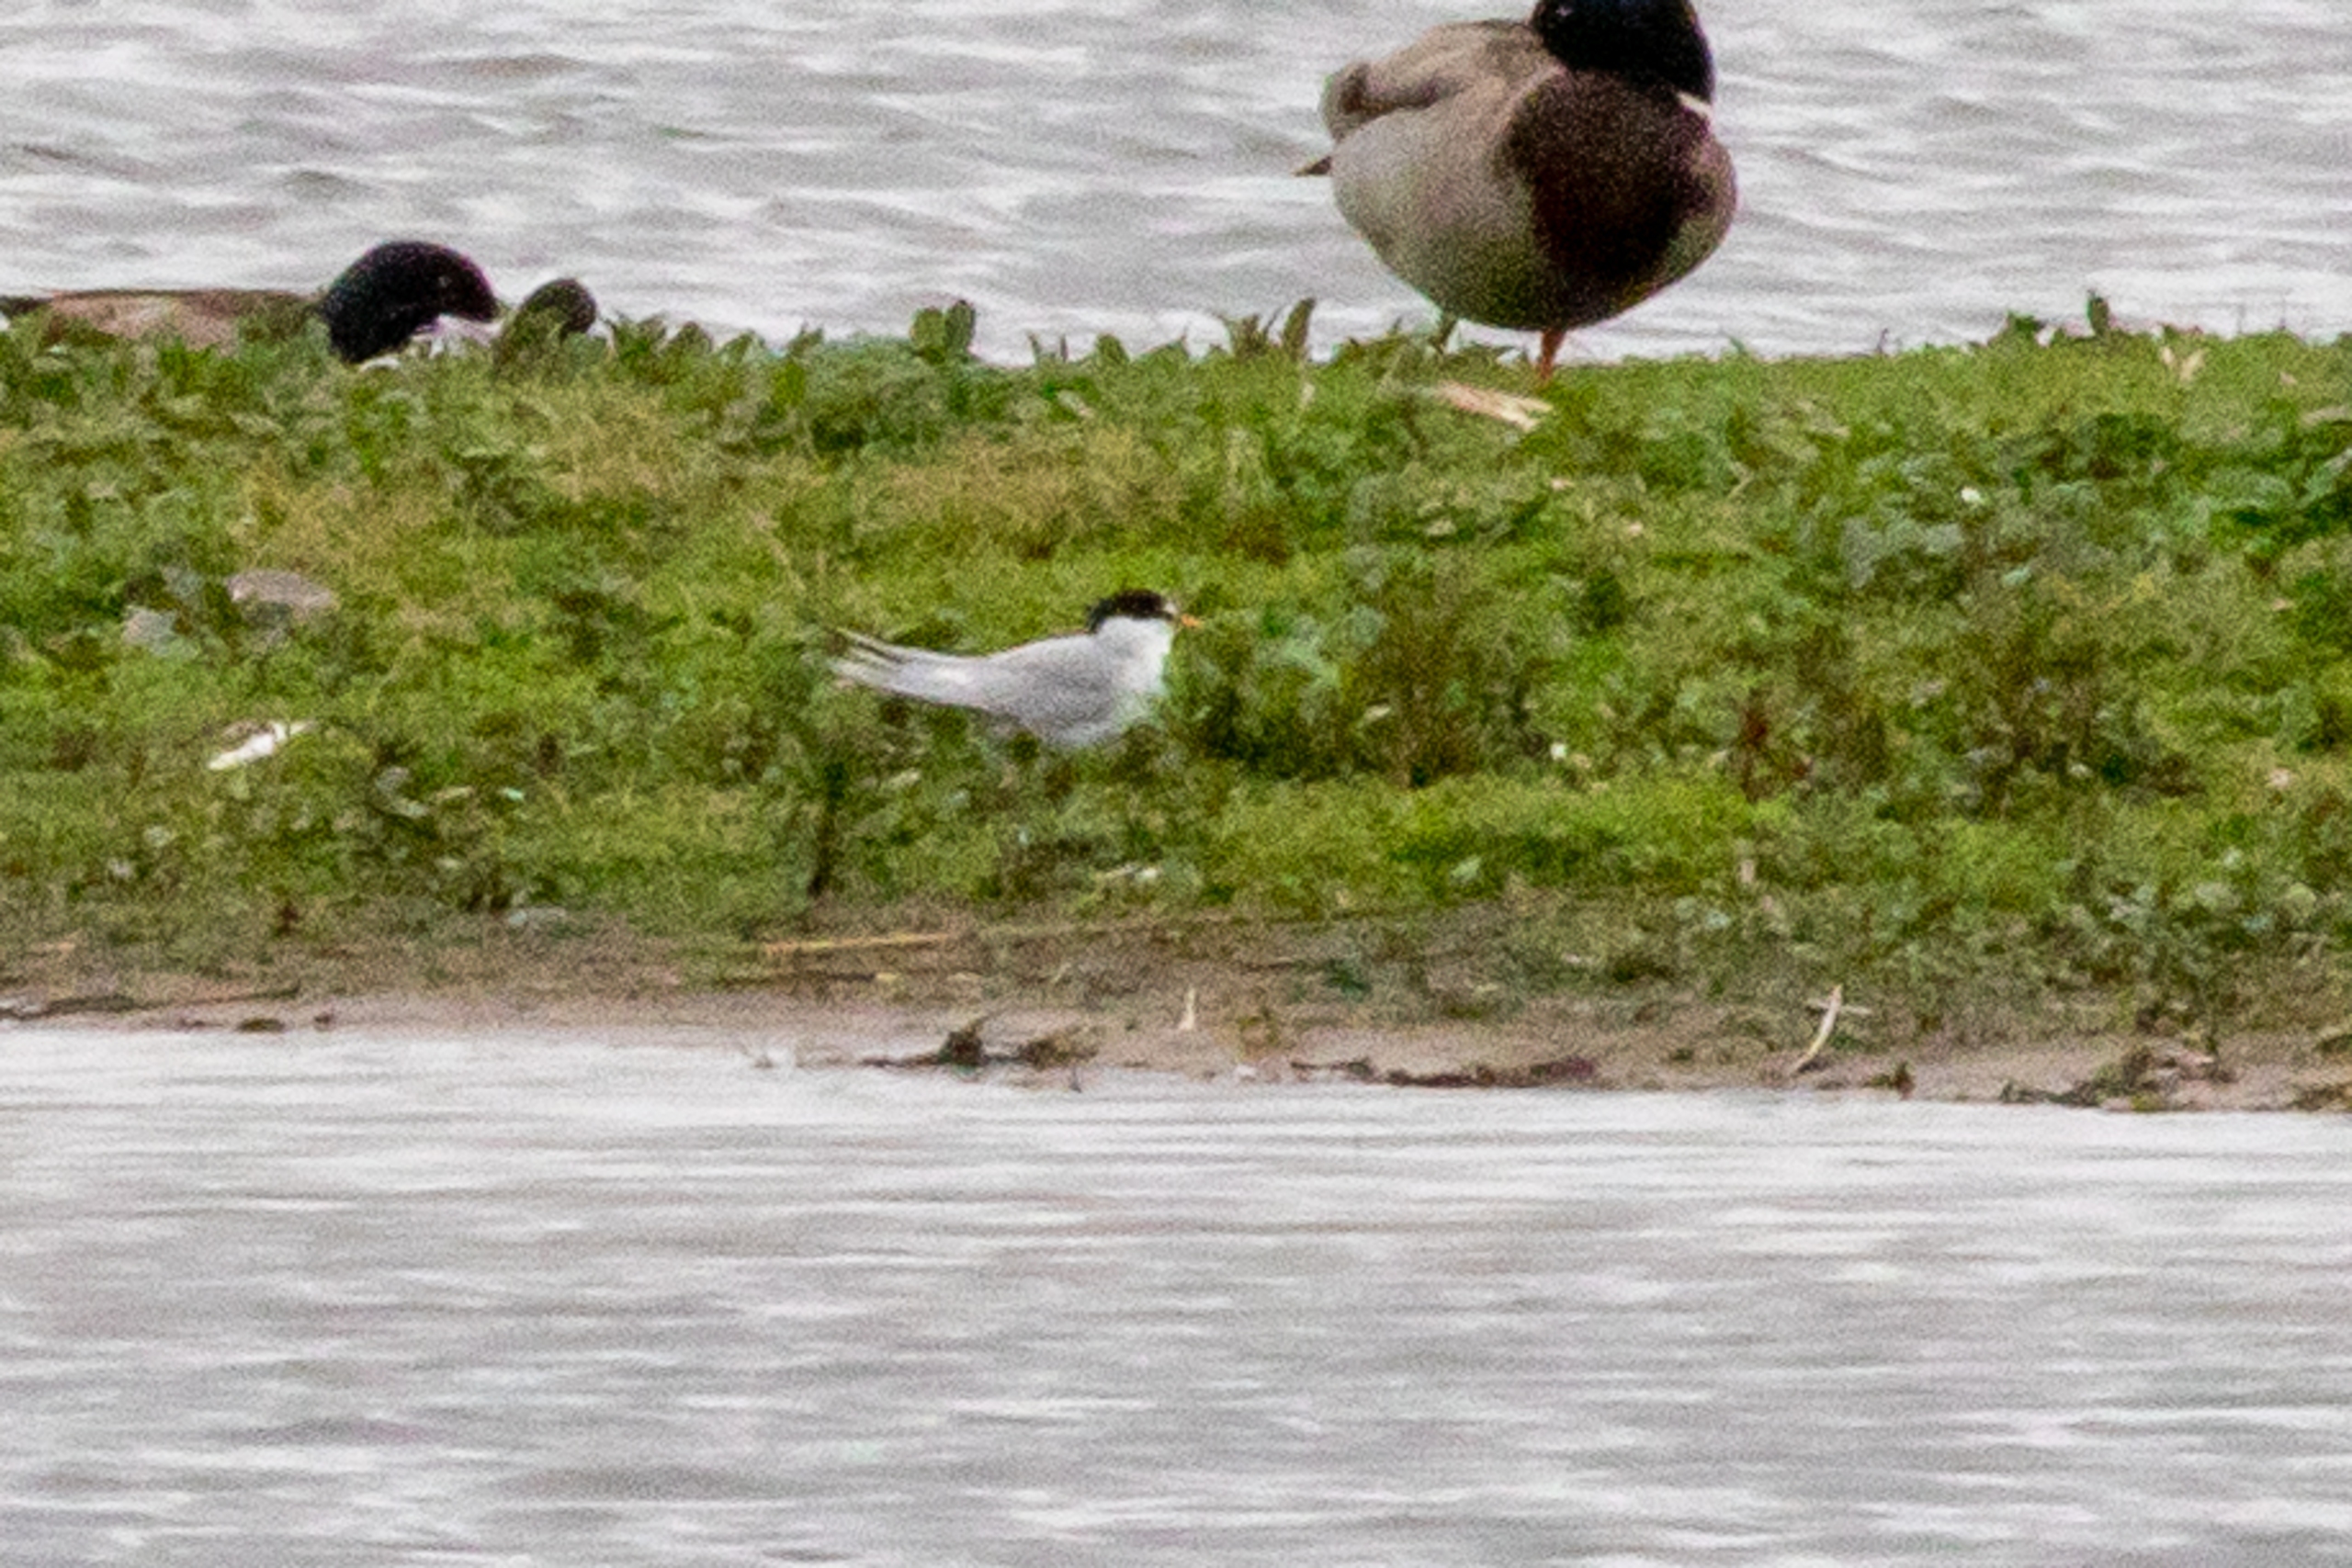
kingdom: Animalia
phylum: Chordata
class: Aves
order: Charadriiformes
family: Laridae
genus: Sternula
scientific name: Sternula albifrons
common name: Dværgterne
